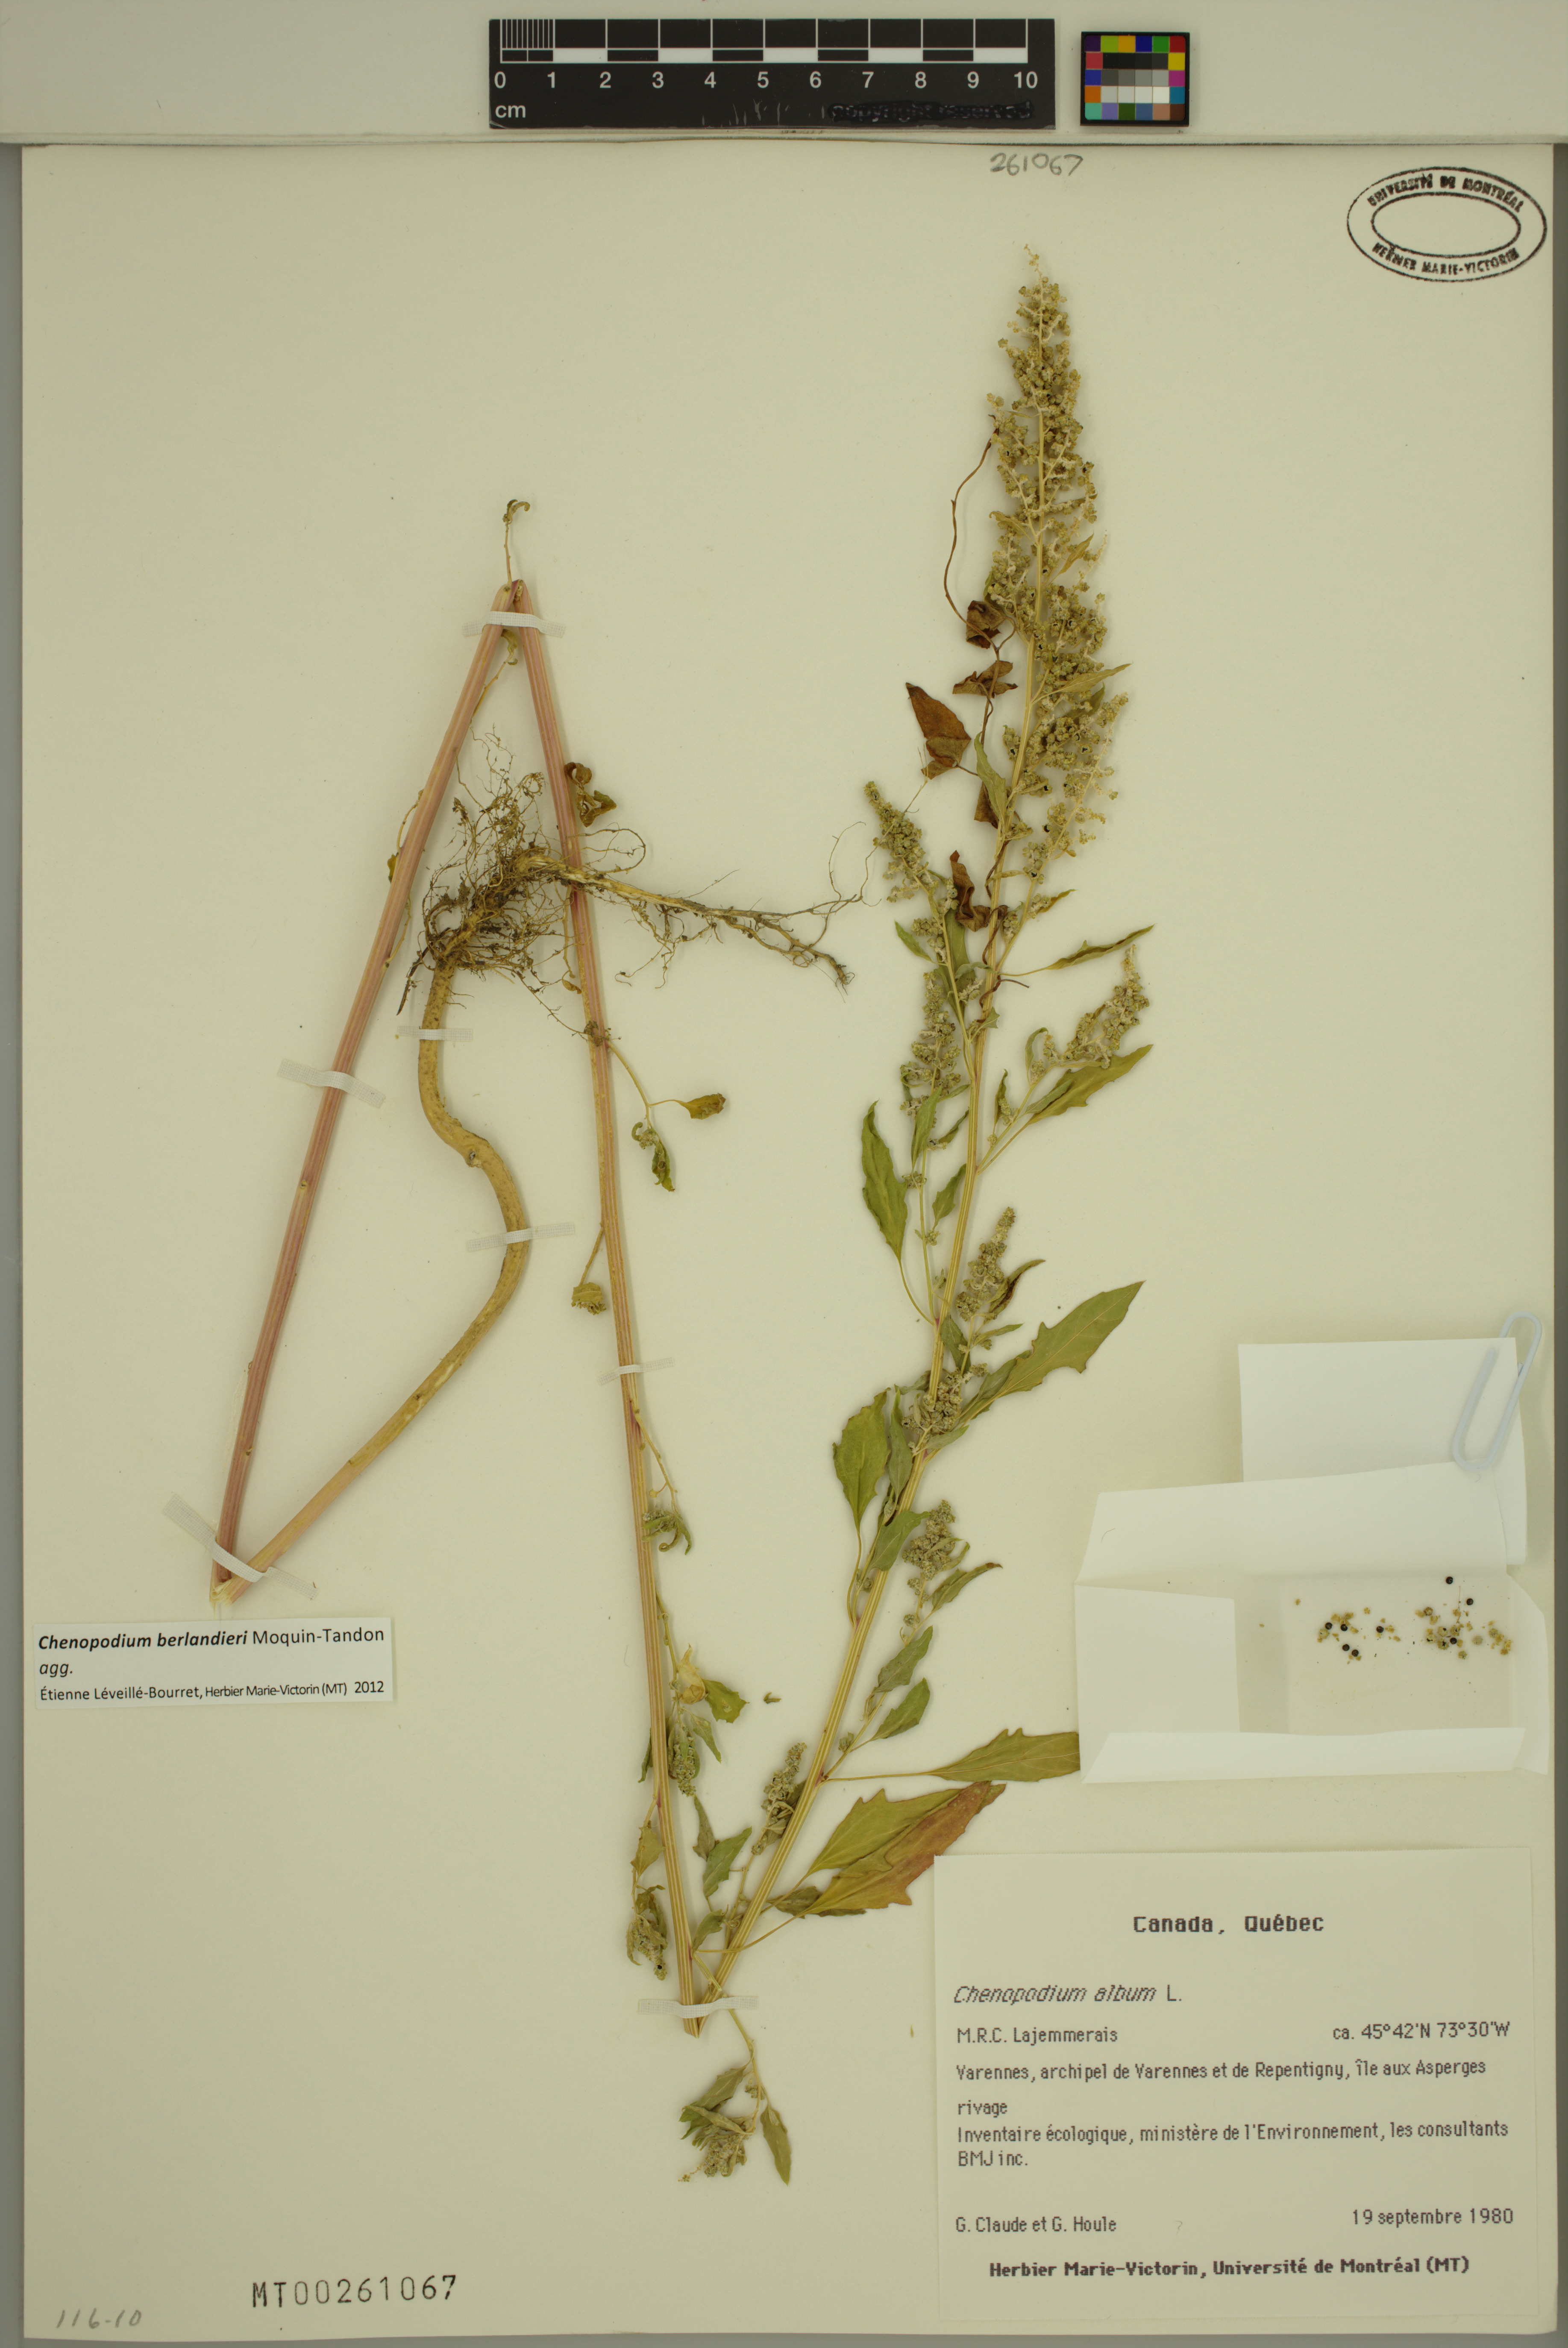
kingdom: Plantae
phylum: Tracheophyta
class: Magnoliopsida
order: Caryophyllales
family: Amaranthaceae
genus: Chenopodium
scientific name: Chenopodium berlandieri
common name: Pit-seed goosefoot
